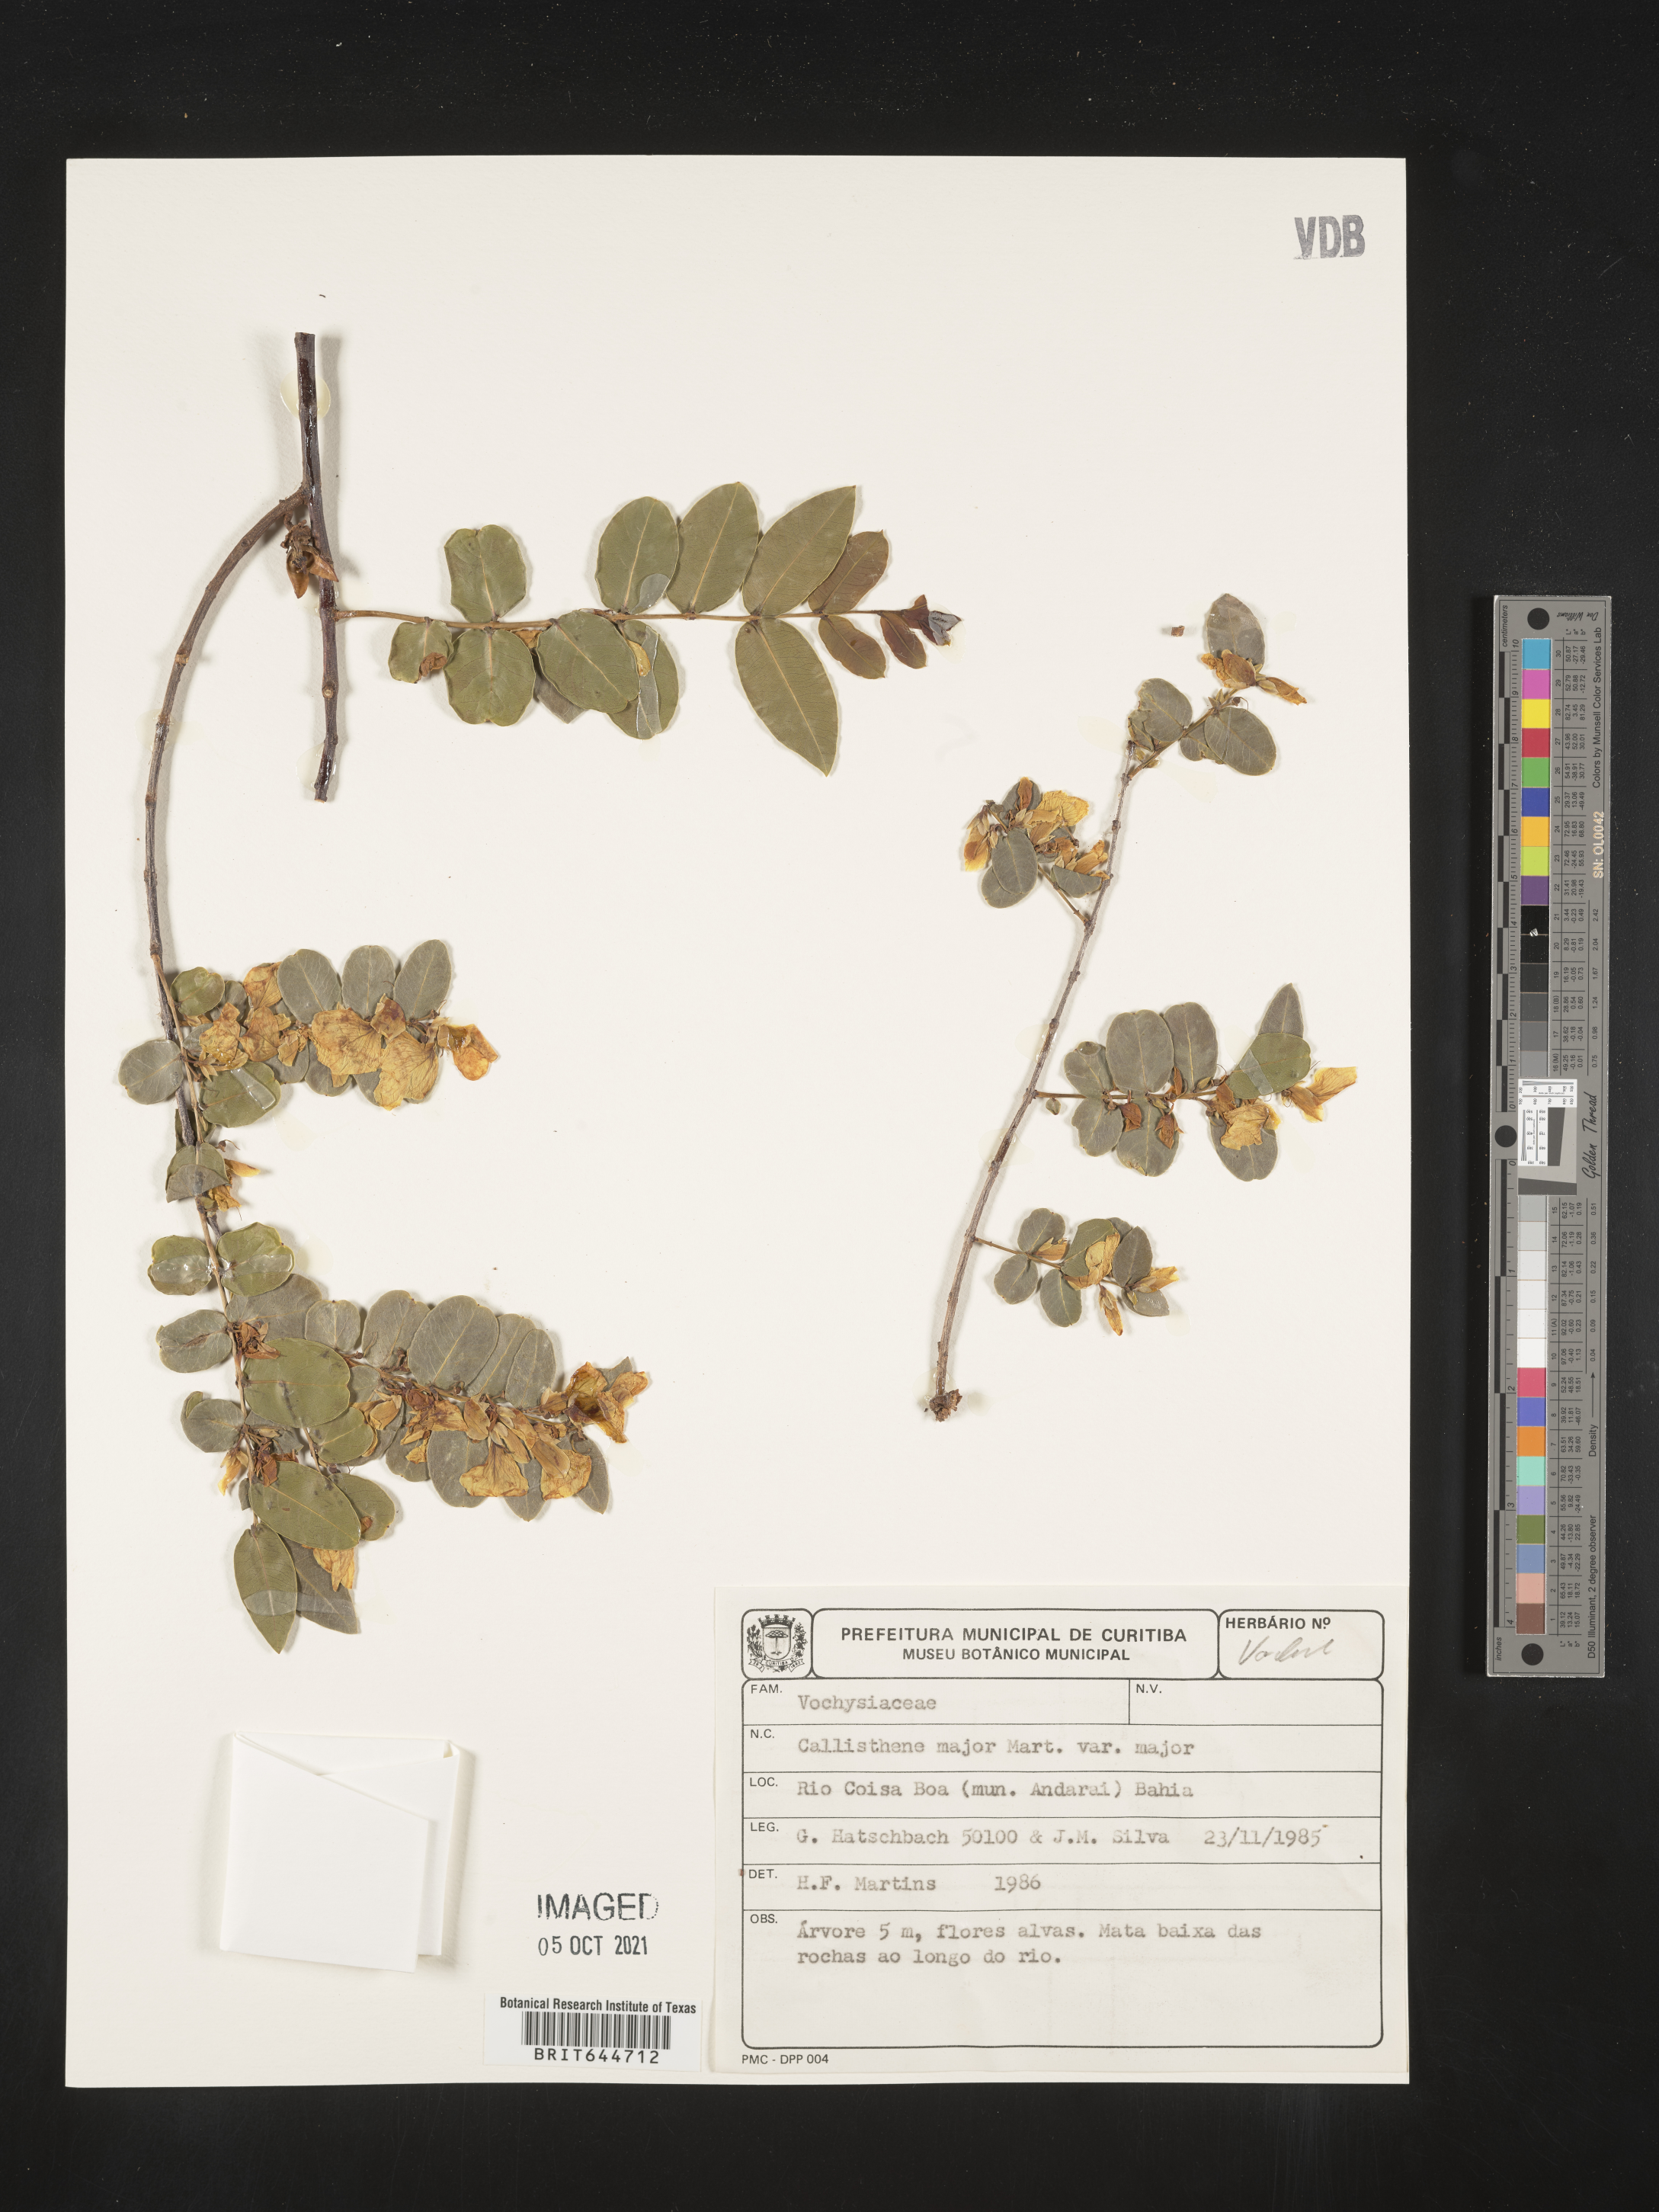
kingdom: Plantae
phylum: Tracheophyta
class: Magnoliopsida
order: Myrtales
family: Vochysiaceae
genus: Callisthene
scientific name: Callisthene
